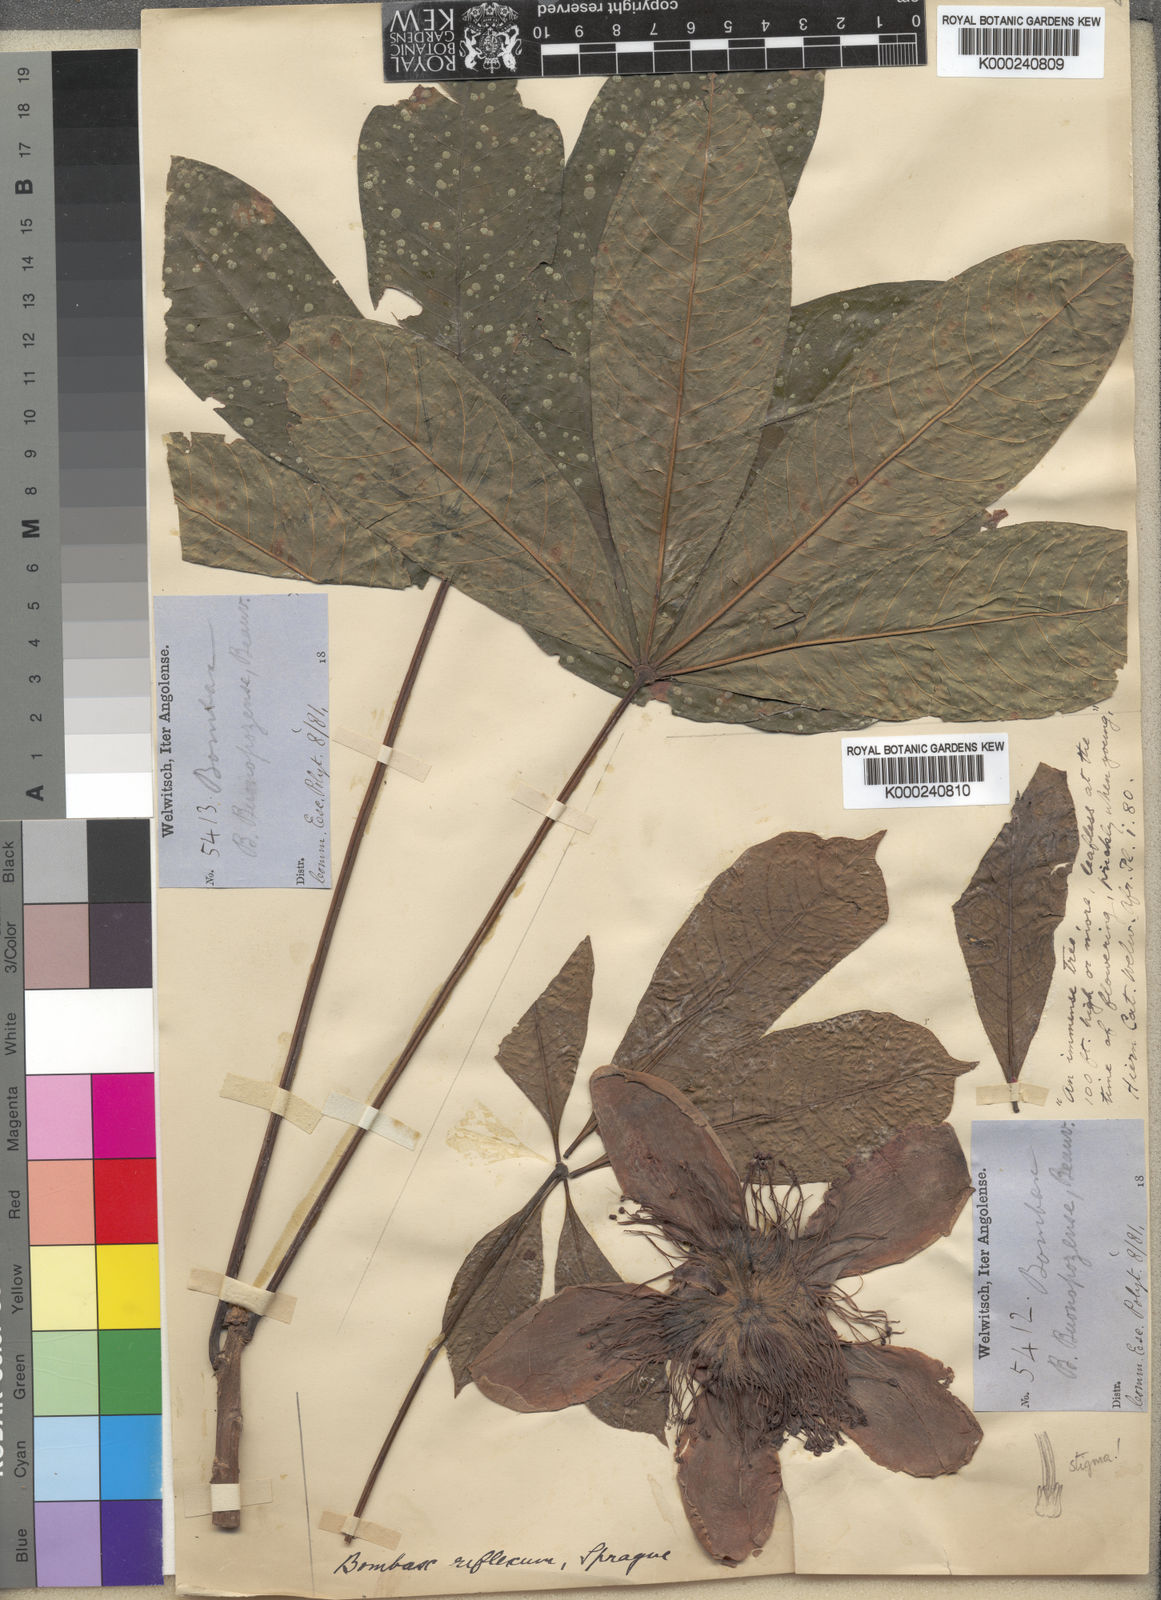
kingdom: Plantae
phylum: Tracheophyta
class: Magnoliopsida
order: Malvales
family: Malvaceae
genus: Bombax
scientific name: Bombax
